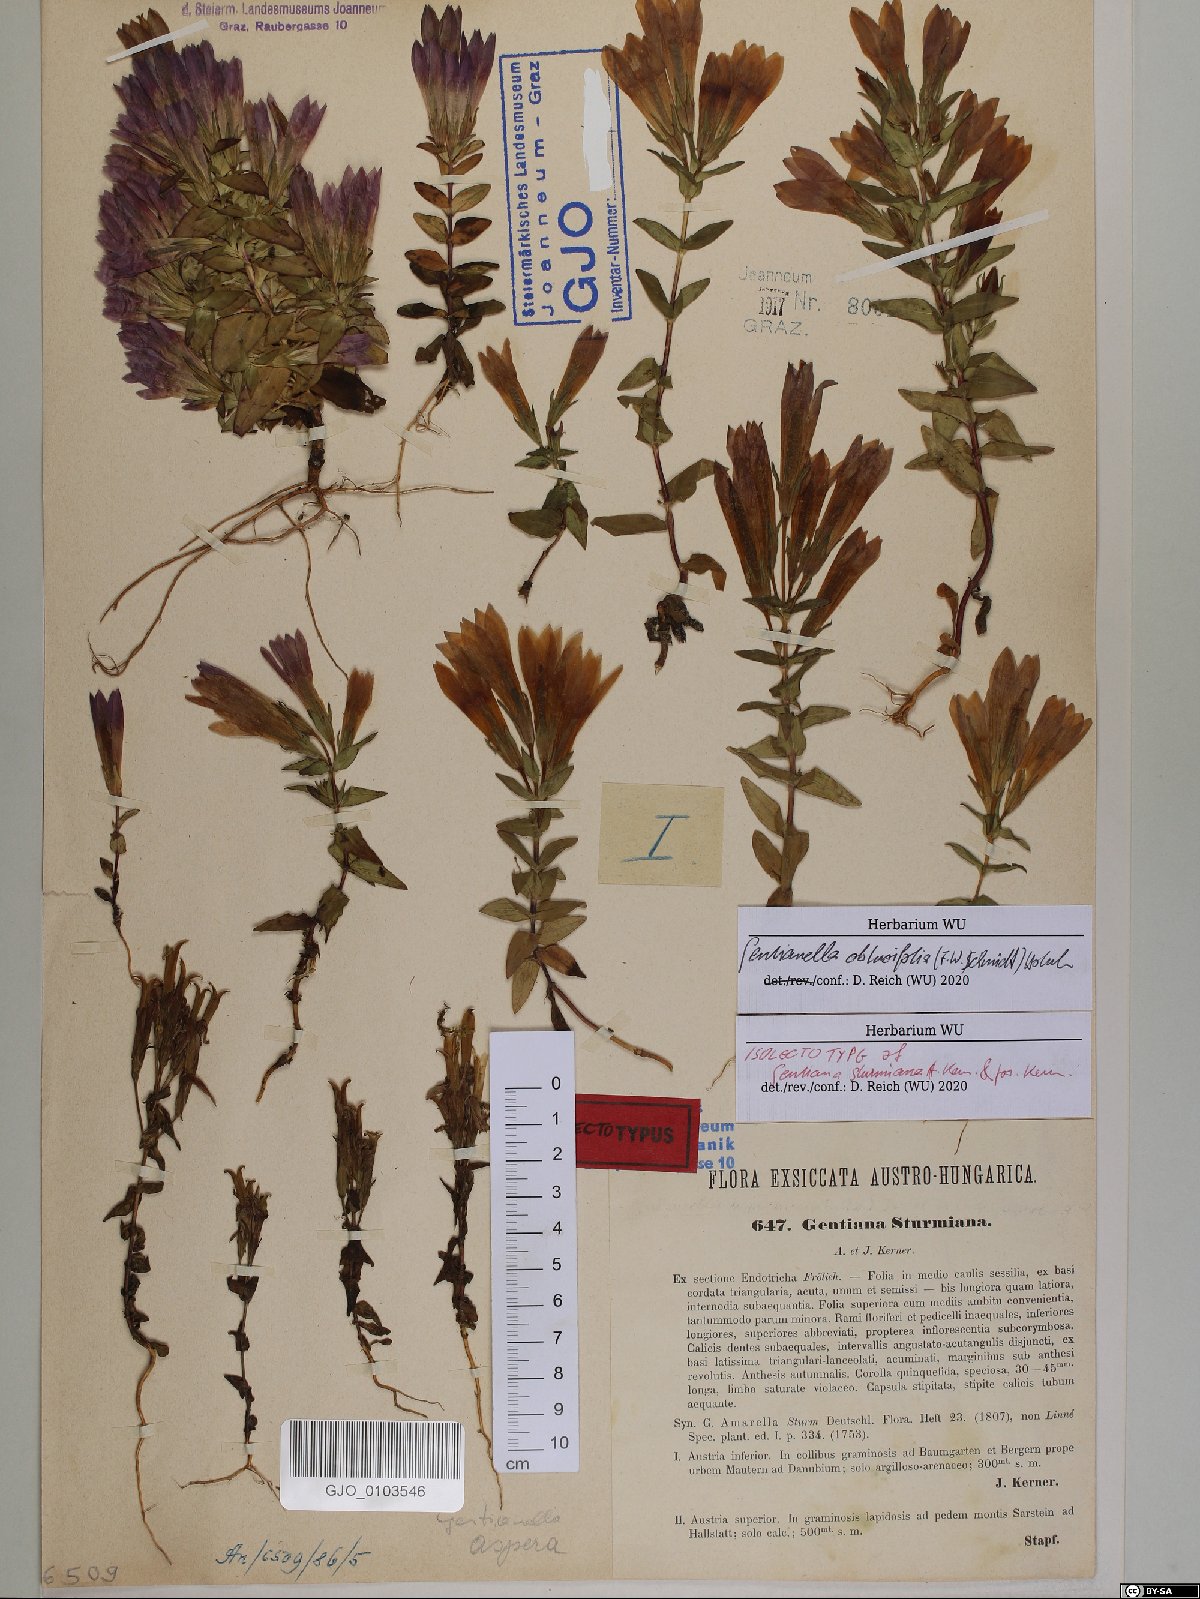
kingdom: Plantae
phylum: Tracheophyta
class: Magnoliopsida
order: Gentianales
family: Gentianaceae
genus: Gentianella
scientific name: Gentianella obtusifolia
